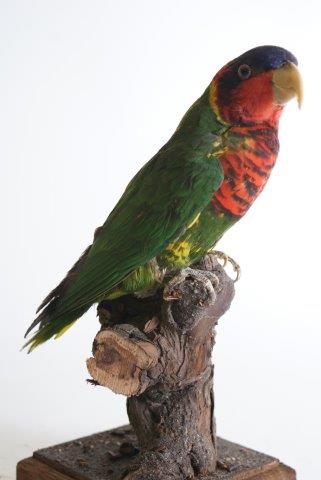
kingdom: Animalia
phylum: Chordata
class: Aves
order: Psittaciformes
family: Psittacidae
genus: Trichoglossus
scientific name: Trichoglossus ornatus
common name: Ornate lorikeet
